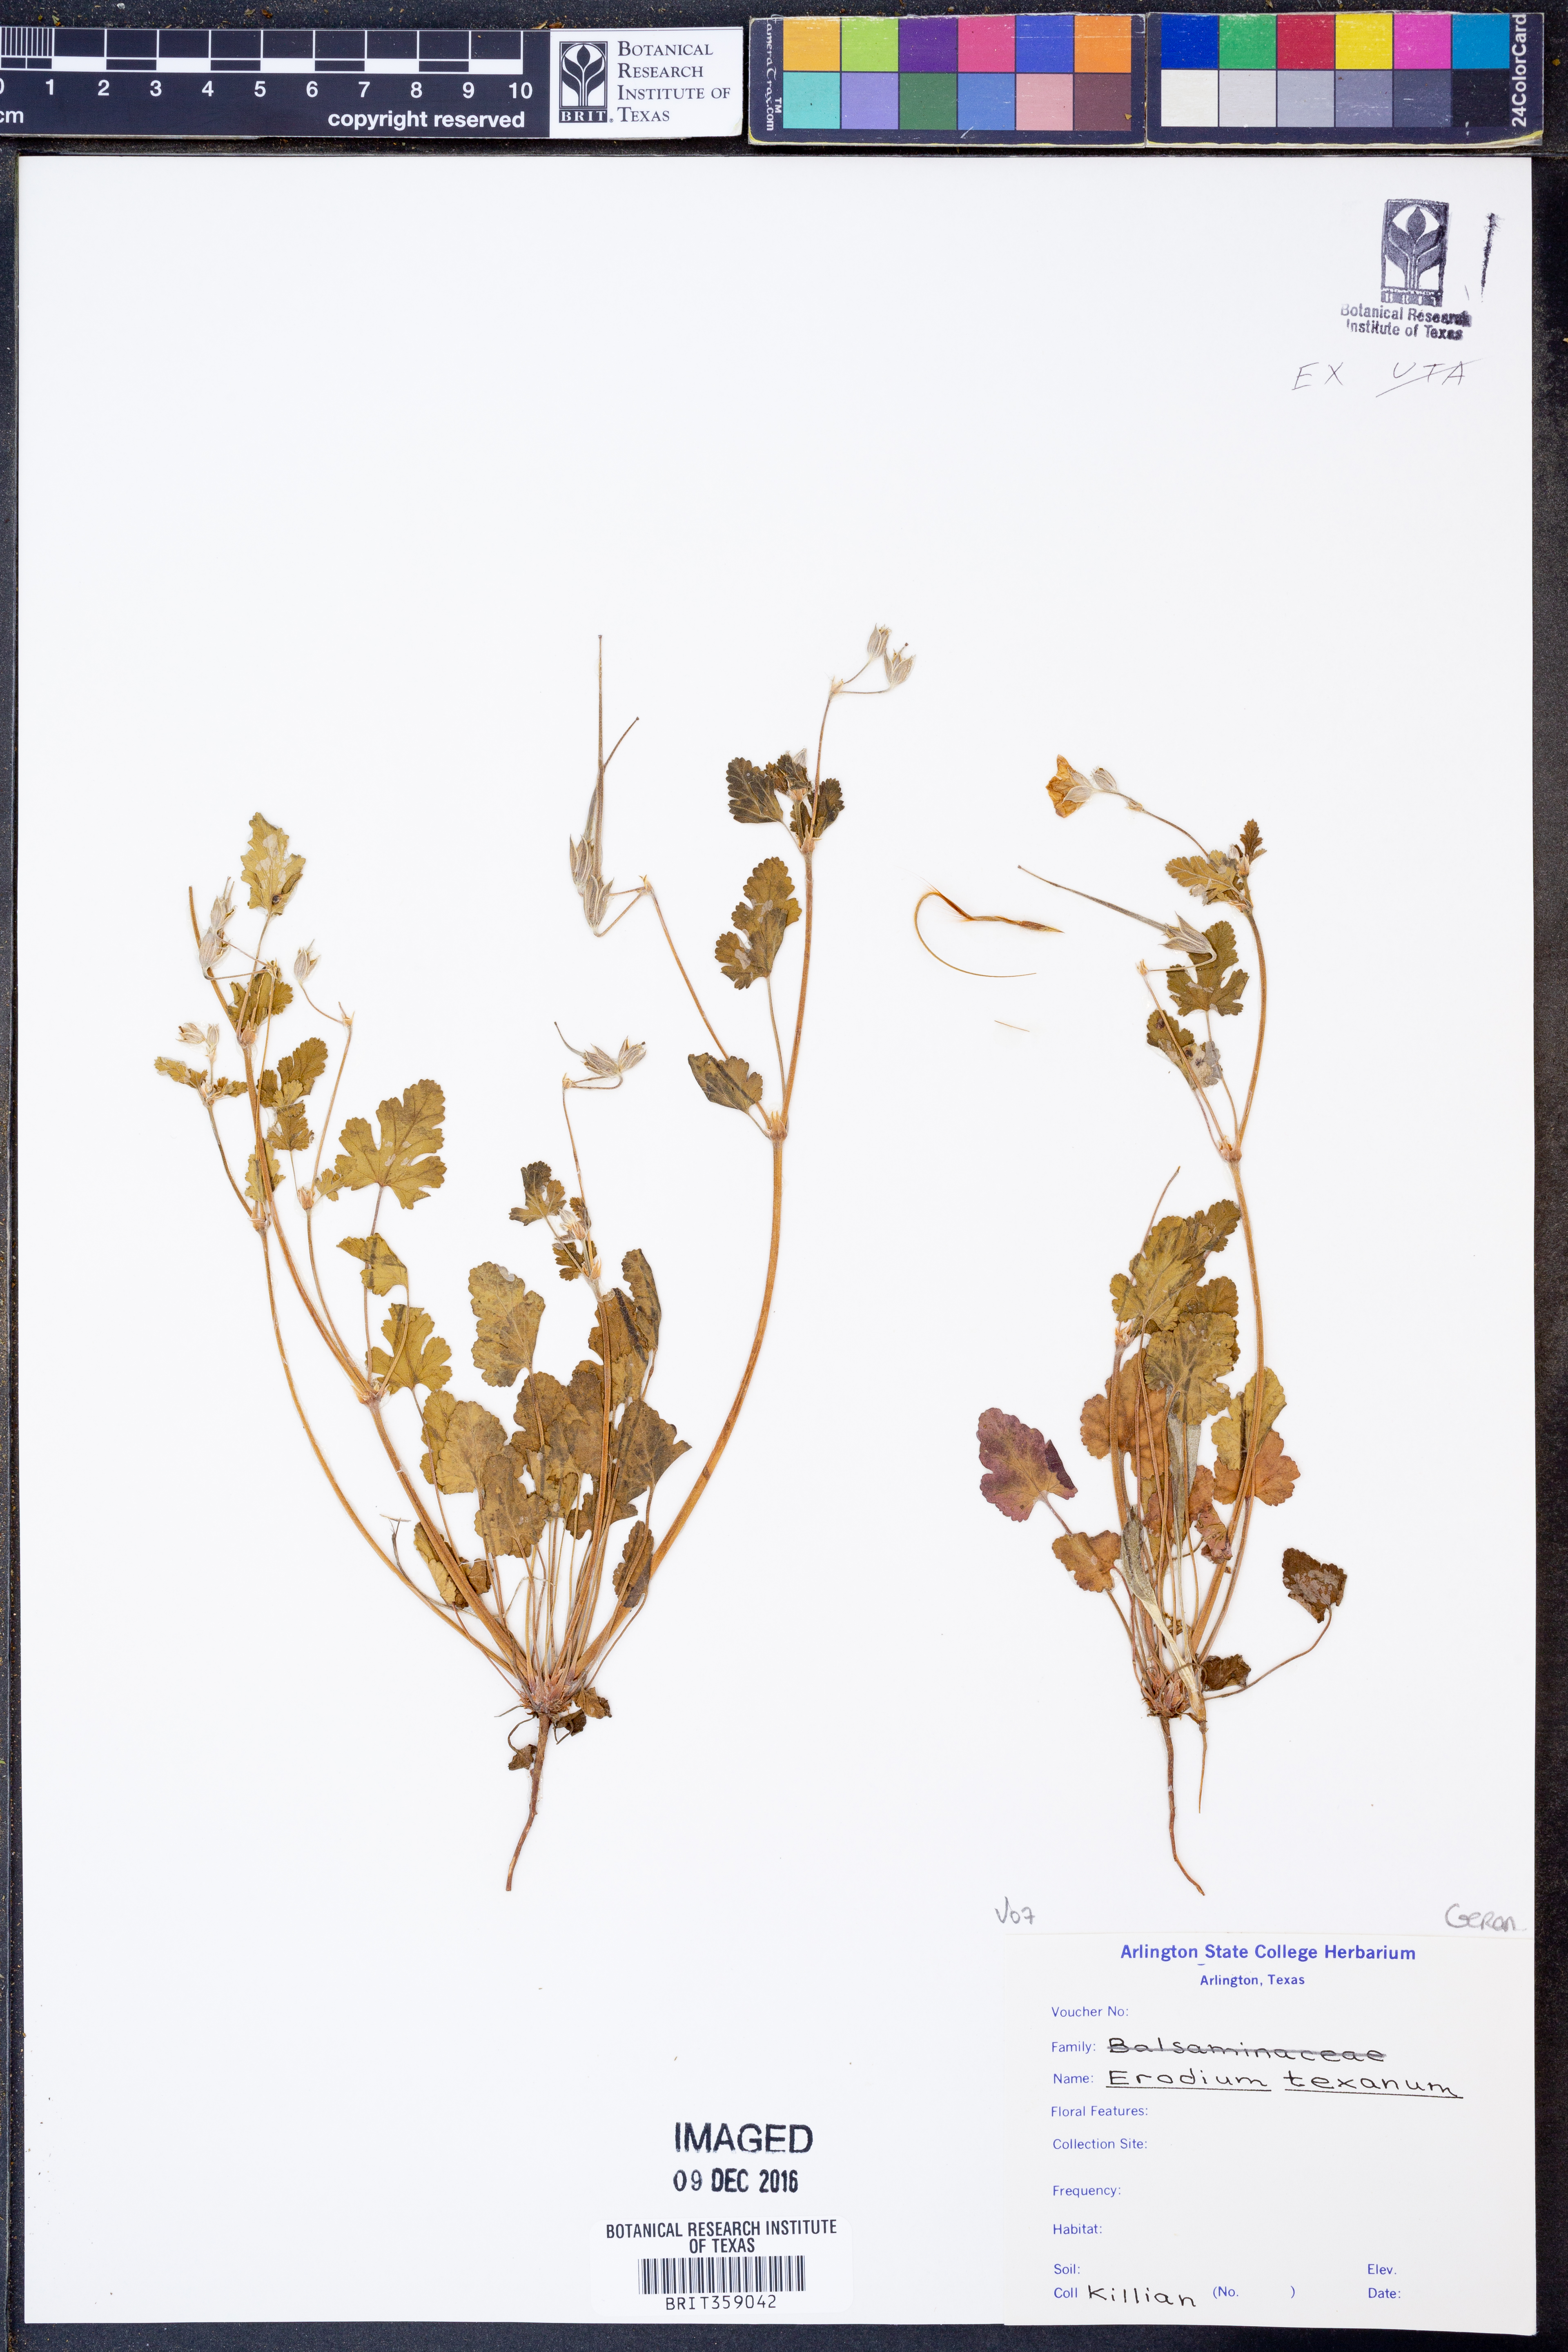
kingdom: Plantae
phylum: Tracheophyta
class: Magnoliopsida
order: Geraniales
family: Geraniaceae
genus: Erodium
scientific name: Erodium texanum
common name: Texas stork's-bill
